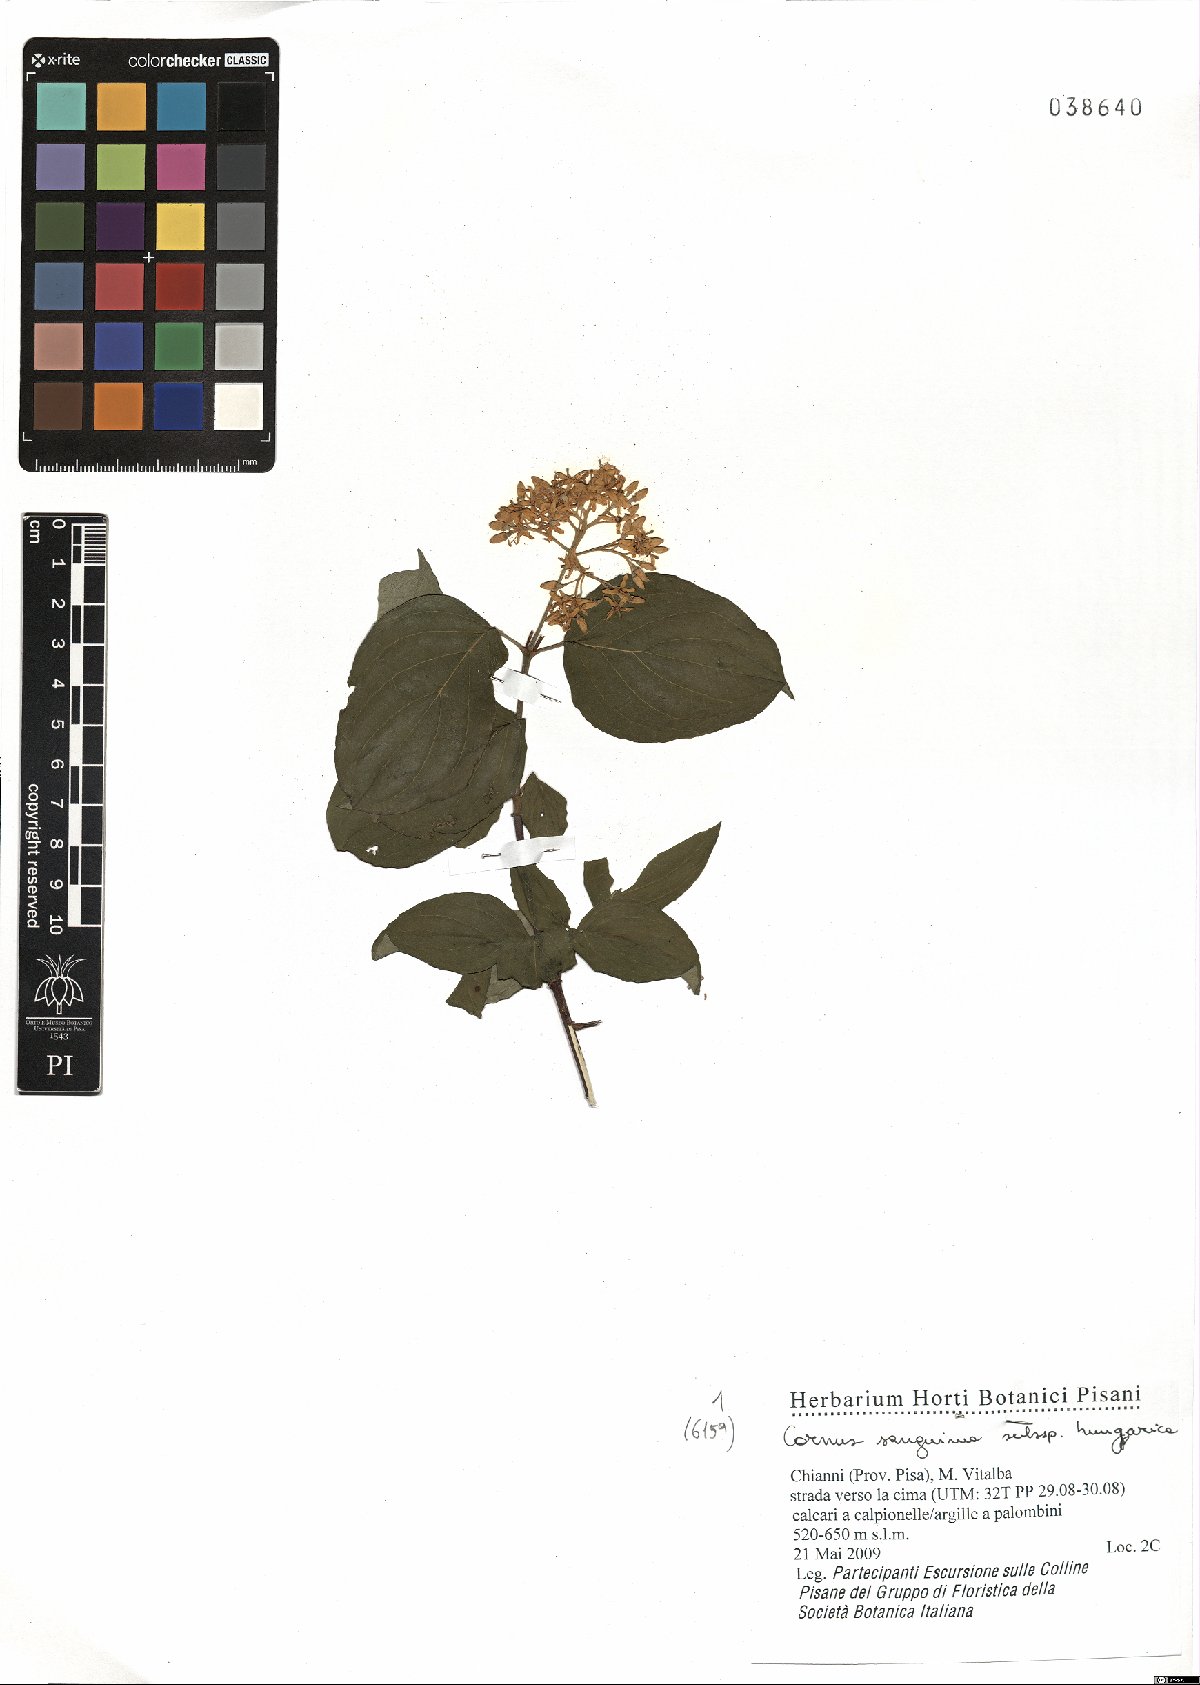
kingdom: Plantae
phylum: Tracheophyta
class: Magnoliopsida
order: Cornales
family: Cornaceae
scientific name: Cornaceae
